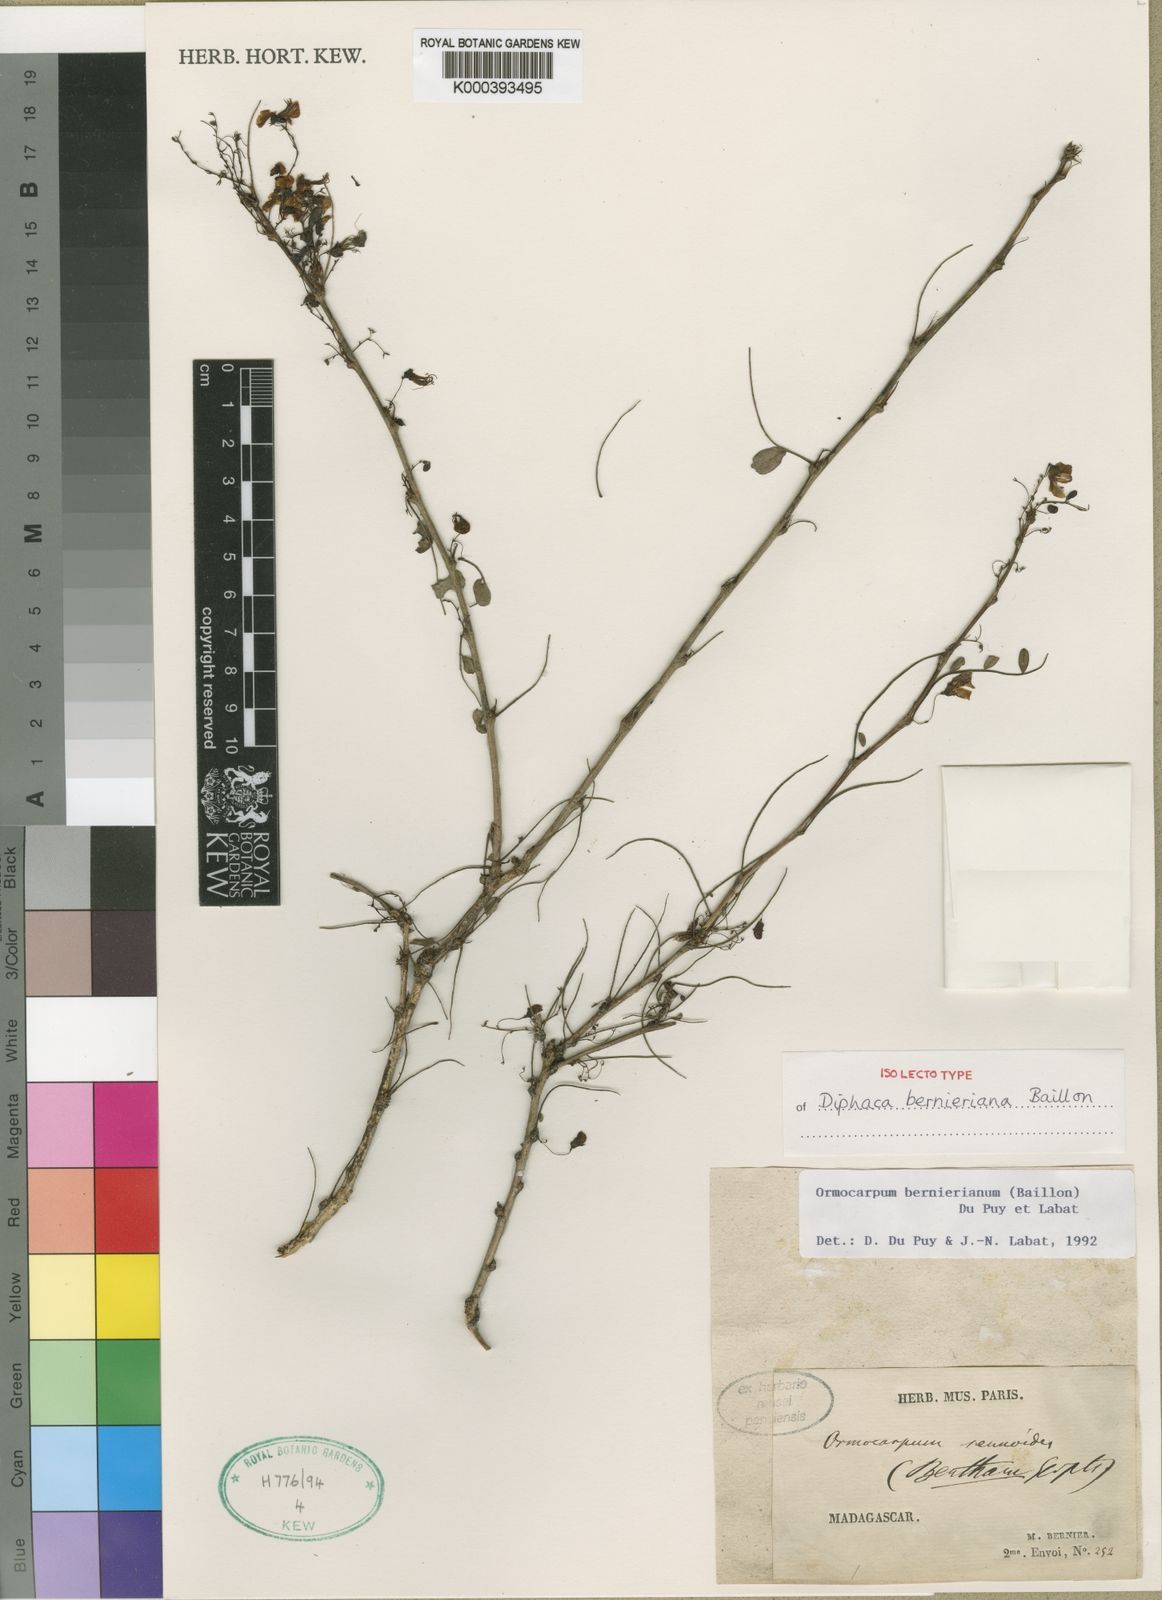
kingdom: Plantae
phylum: Tracheophyta
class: Magnoliopsida
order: Fabales
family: Fabaceae
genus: Ormocarpum
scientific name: Ormocarpum bernierianum
